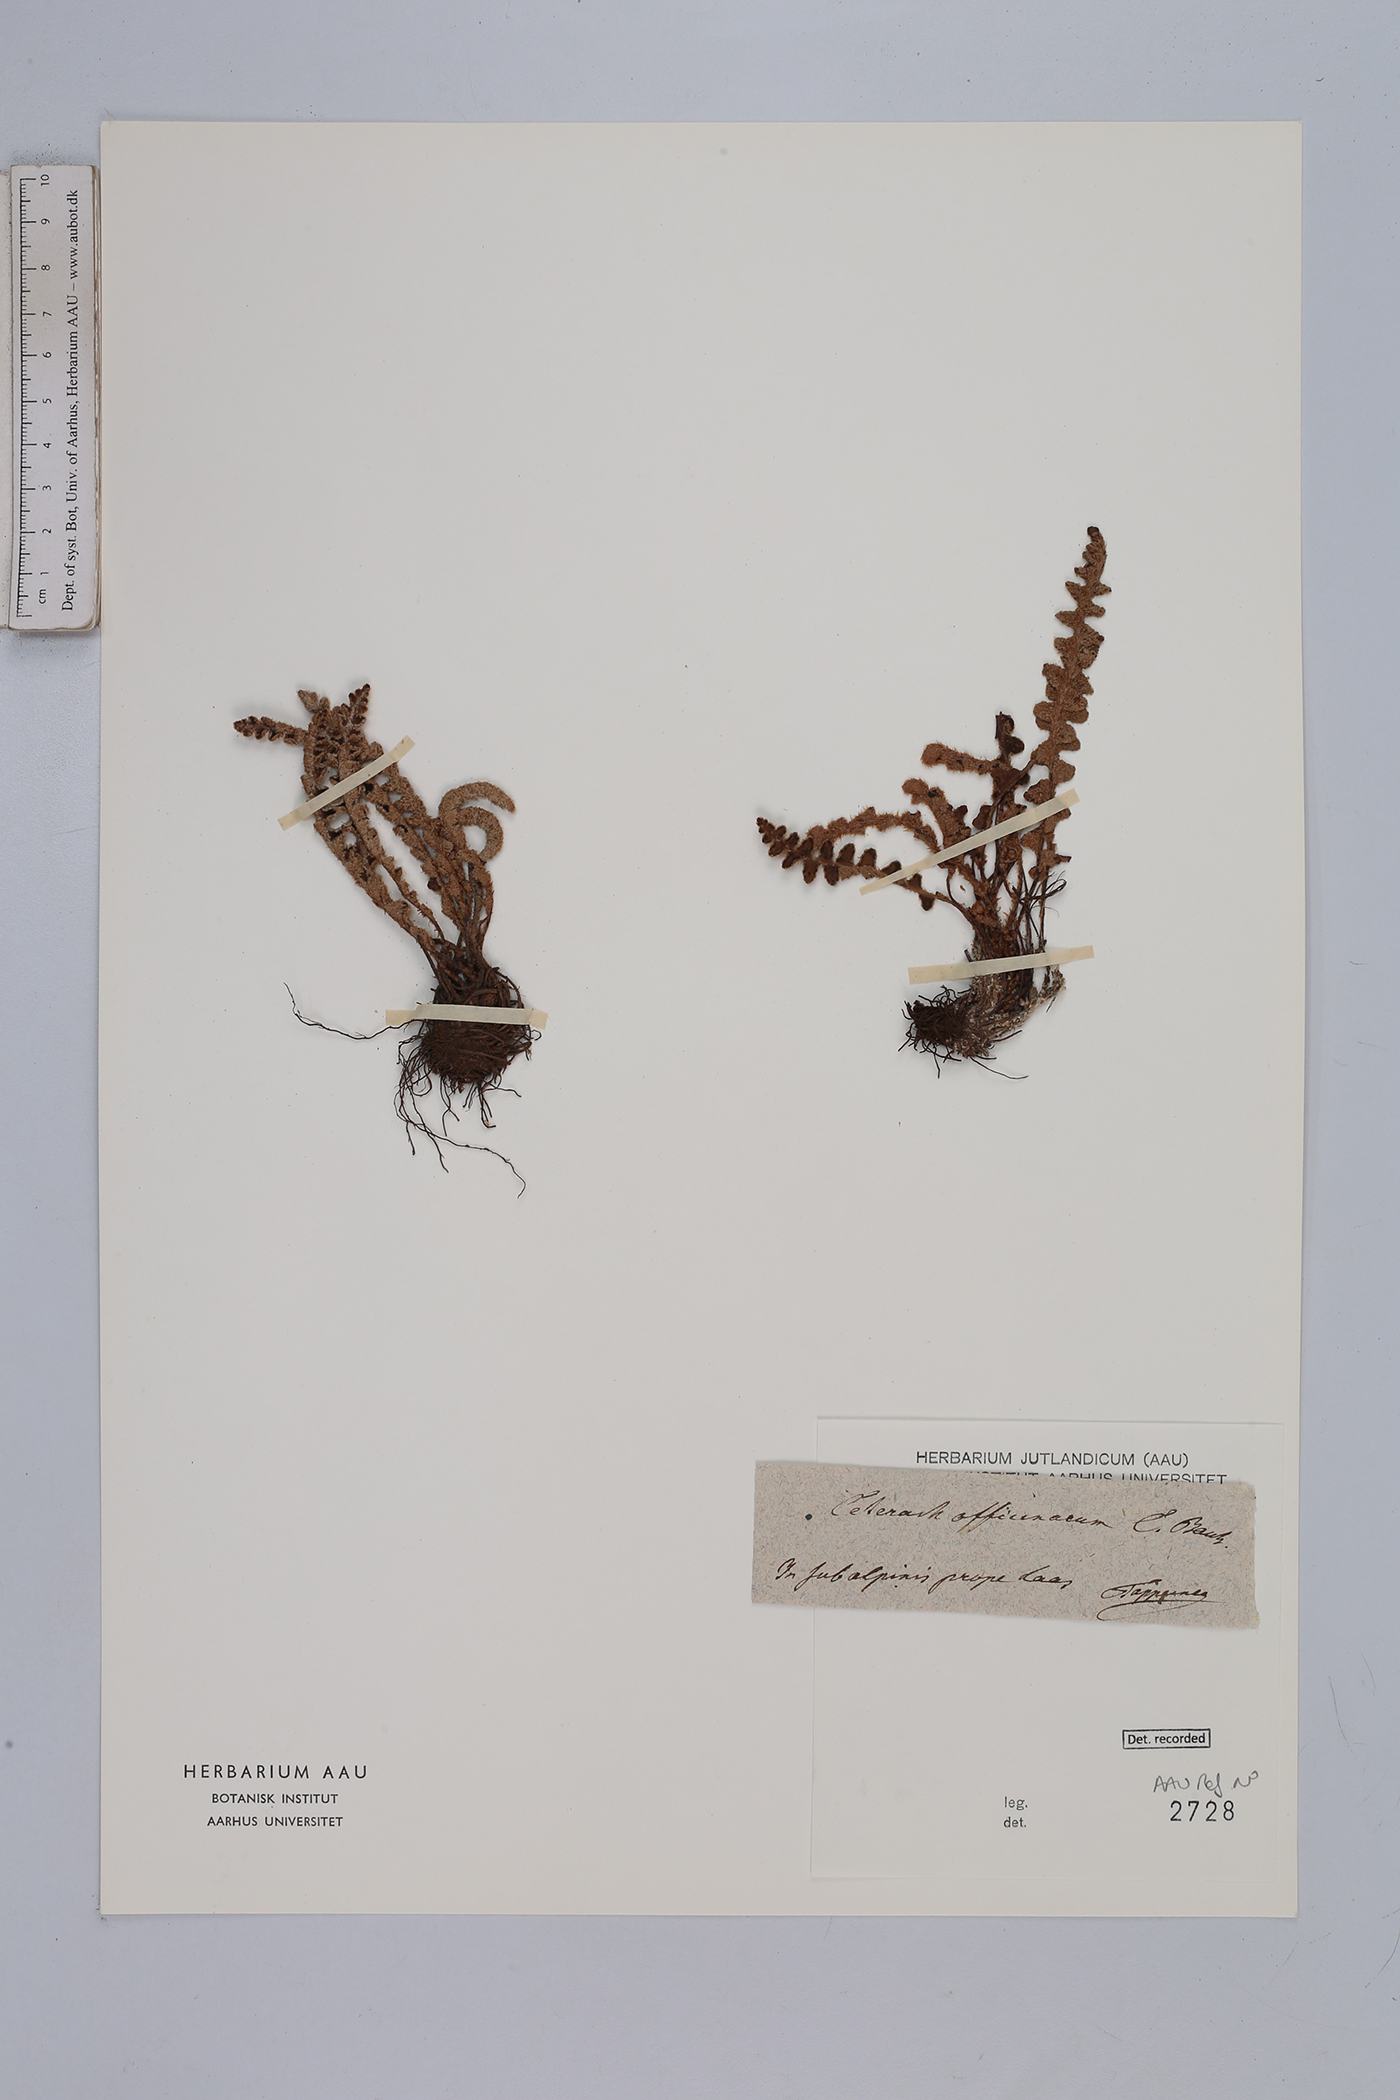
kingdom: Plantae
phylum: Tracheophyta
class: Polypodiopsida
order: Polypodiales
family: Aspleniaceae
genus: Asplenium
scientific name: Asplenium ceterach
